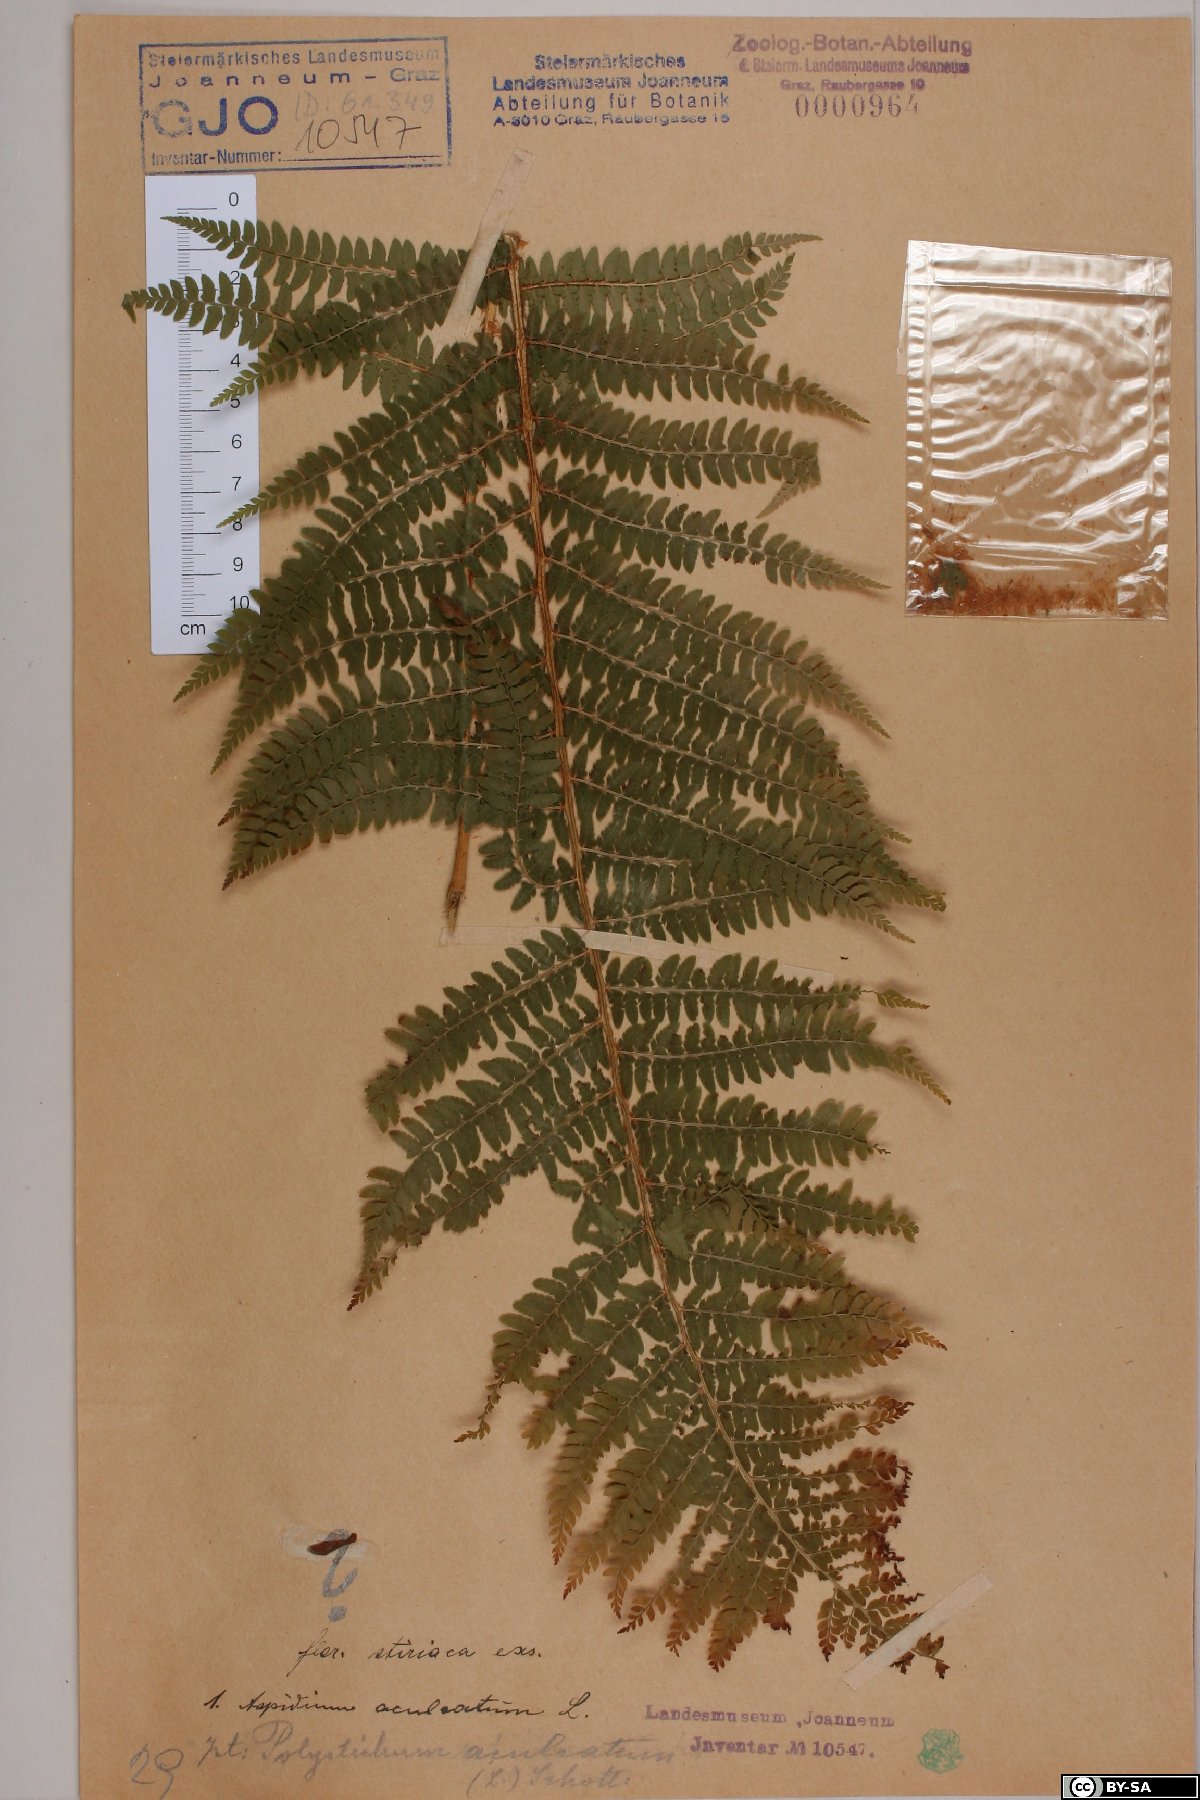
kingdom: Plantae
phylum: Tracheophyta
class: Polypodiopsida
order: Polypodiales
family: Dryopteridaceae
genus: Polystichum
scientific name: Polystichum aculeatum
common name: Hard shield-fern
